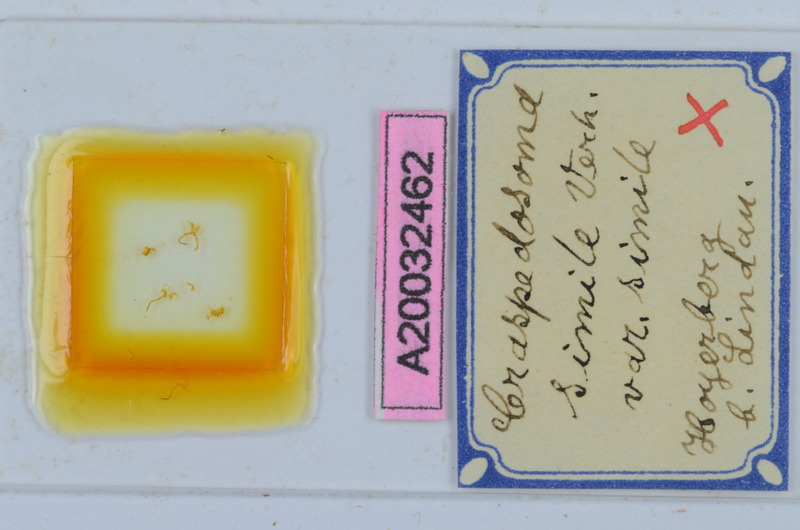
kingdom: Animalia
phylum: Arthropoda
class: Diplopoda
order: Chordeumatida
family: Craspedosomatidae
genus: Craspedosoma
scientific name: Craspedosoma rawlinsii
